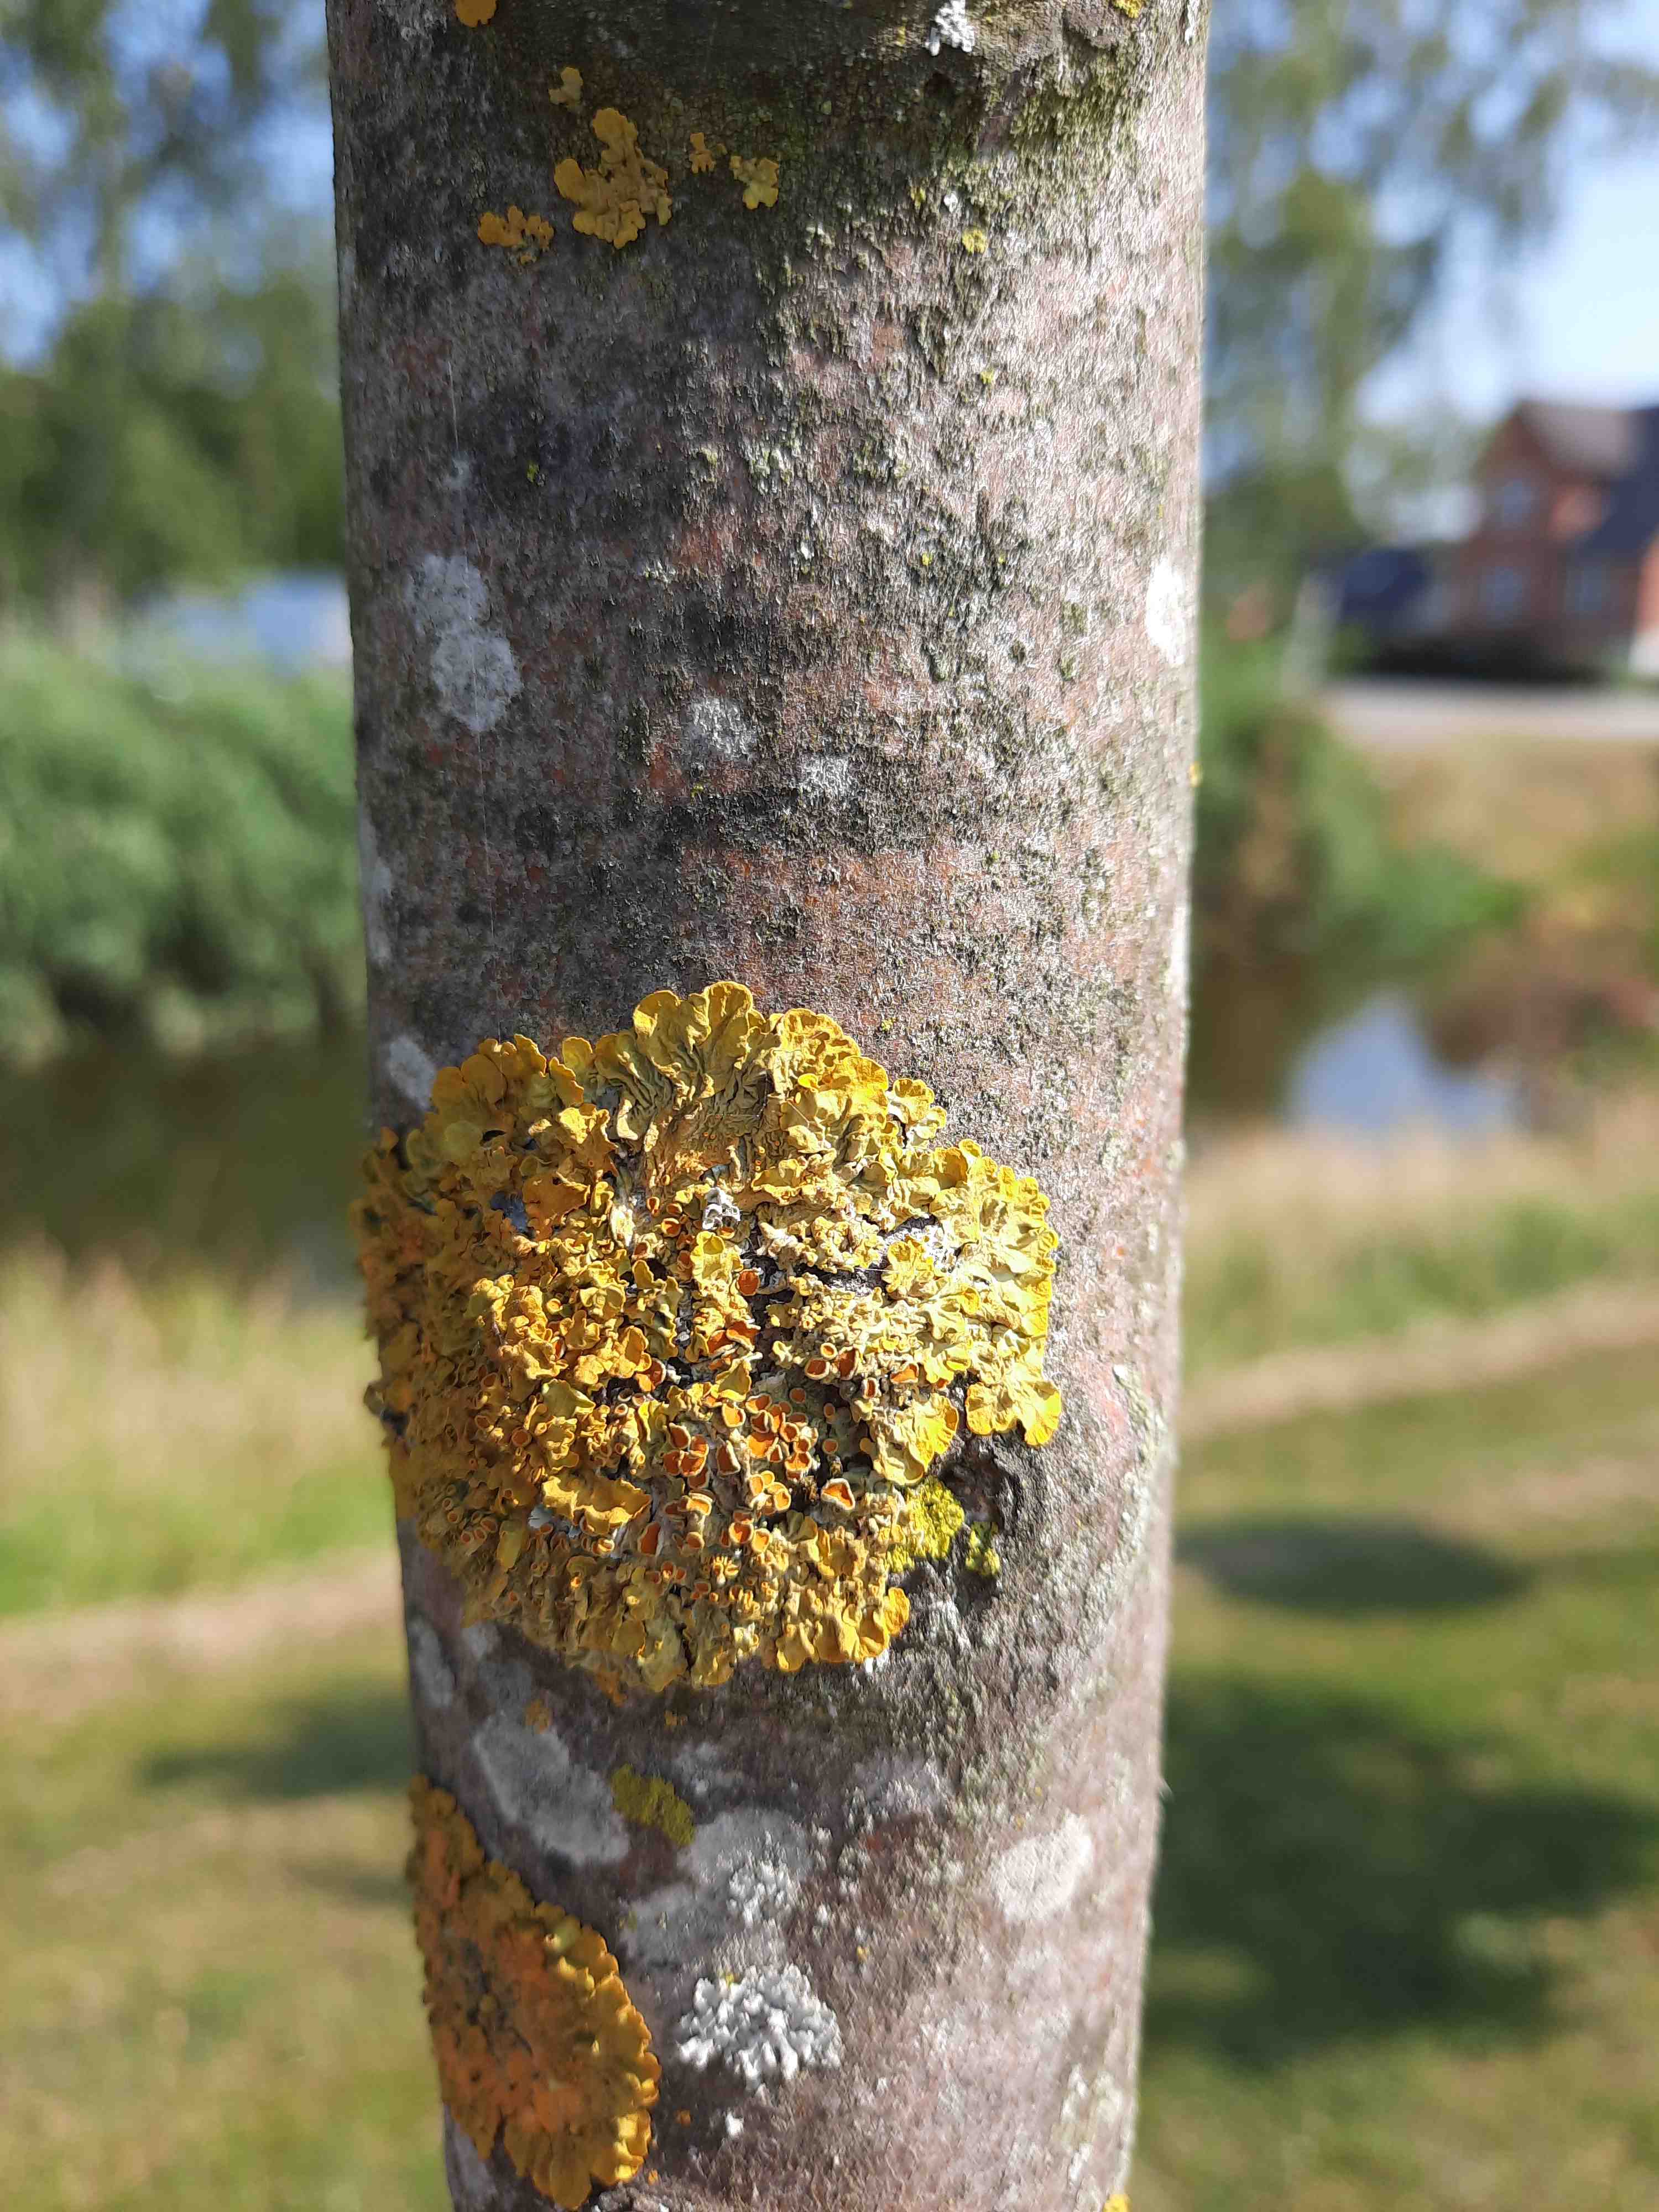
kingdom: Fungi
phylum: Ascomycota
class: Lecanoromycetes
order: Teloschistales
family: Teloschistaceae
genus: Xanthoria
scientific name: Xanthoria parietina
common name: almindelig væggelav
